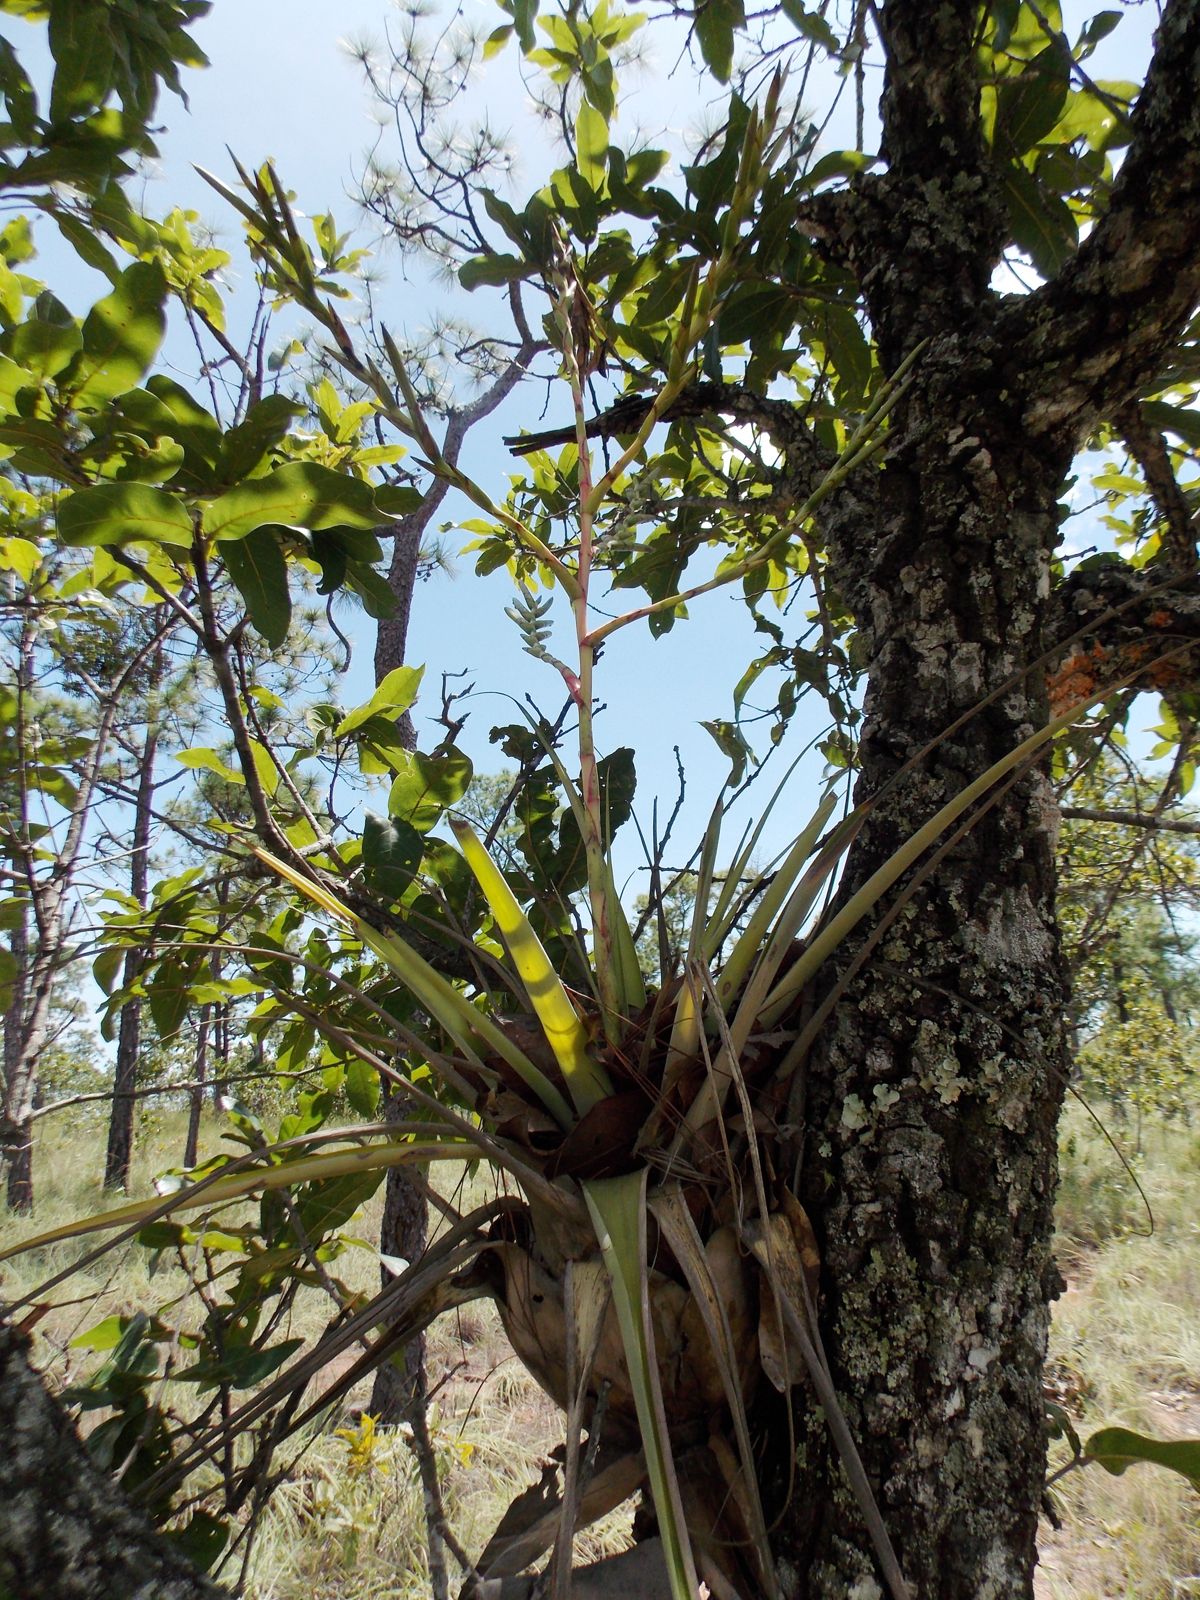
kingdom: Plantae
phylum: Tracheophyta
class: Liliopsida
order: Poales
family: Bromeliaceae
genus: Tillandsia
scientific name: Tillandsia makoyana
